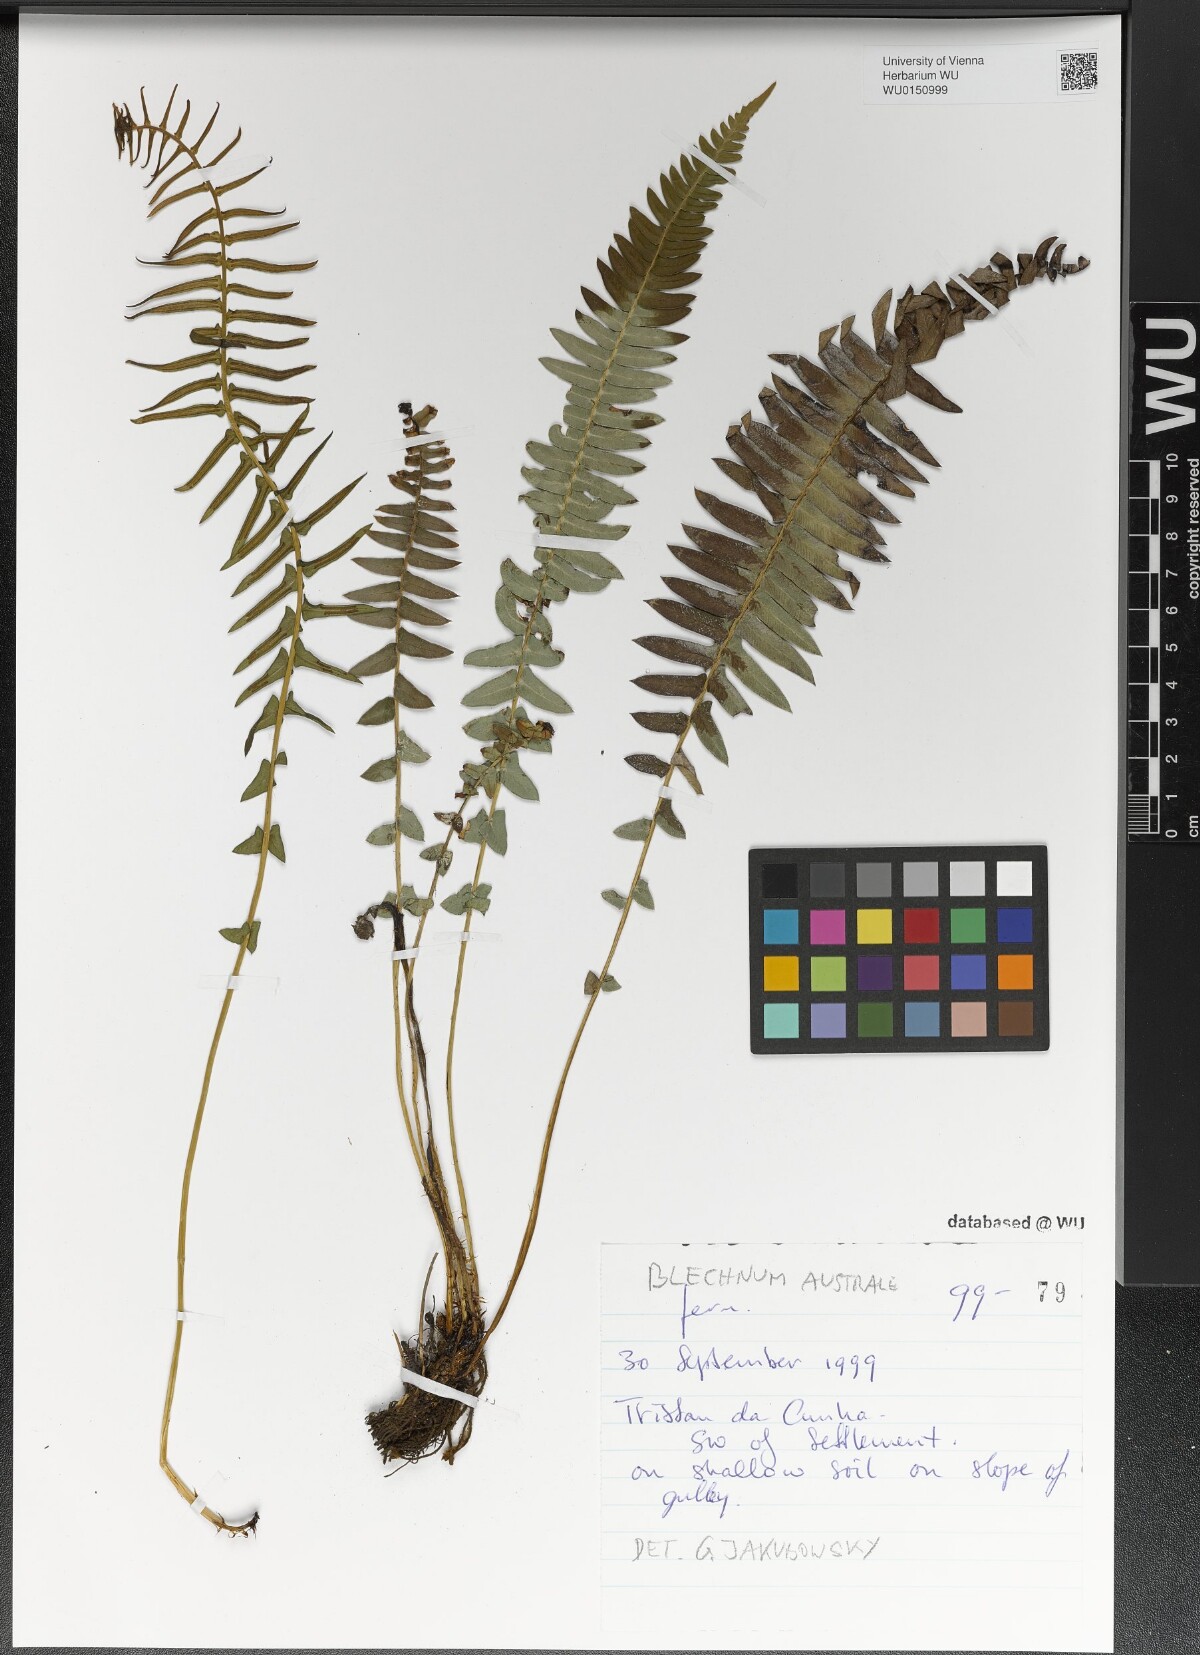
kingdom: Plantae
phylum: Tracheophyta
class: Polypodiopsida
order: Polypodiales
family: Blechnaceae
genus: Blechnum
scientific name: Blechnum australe
